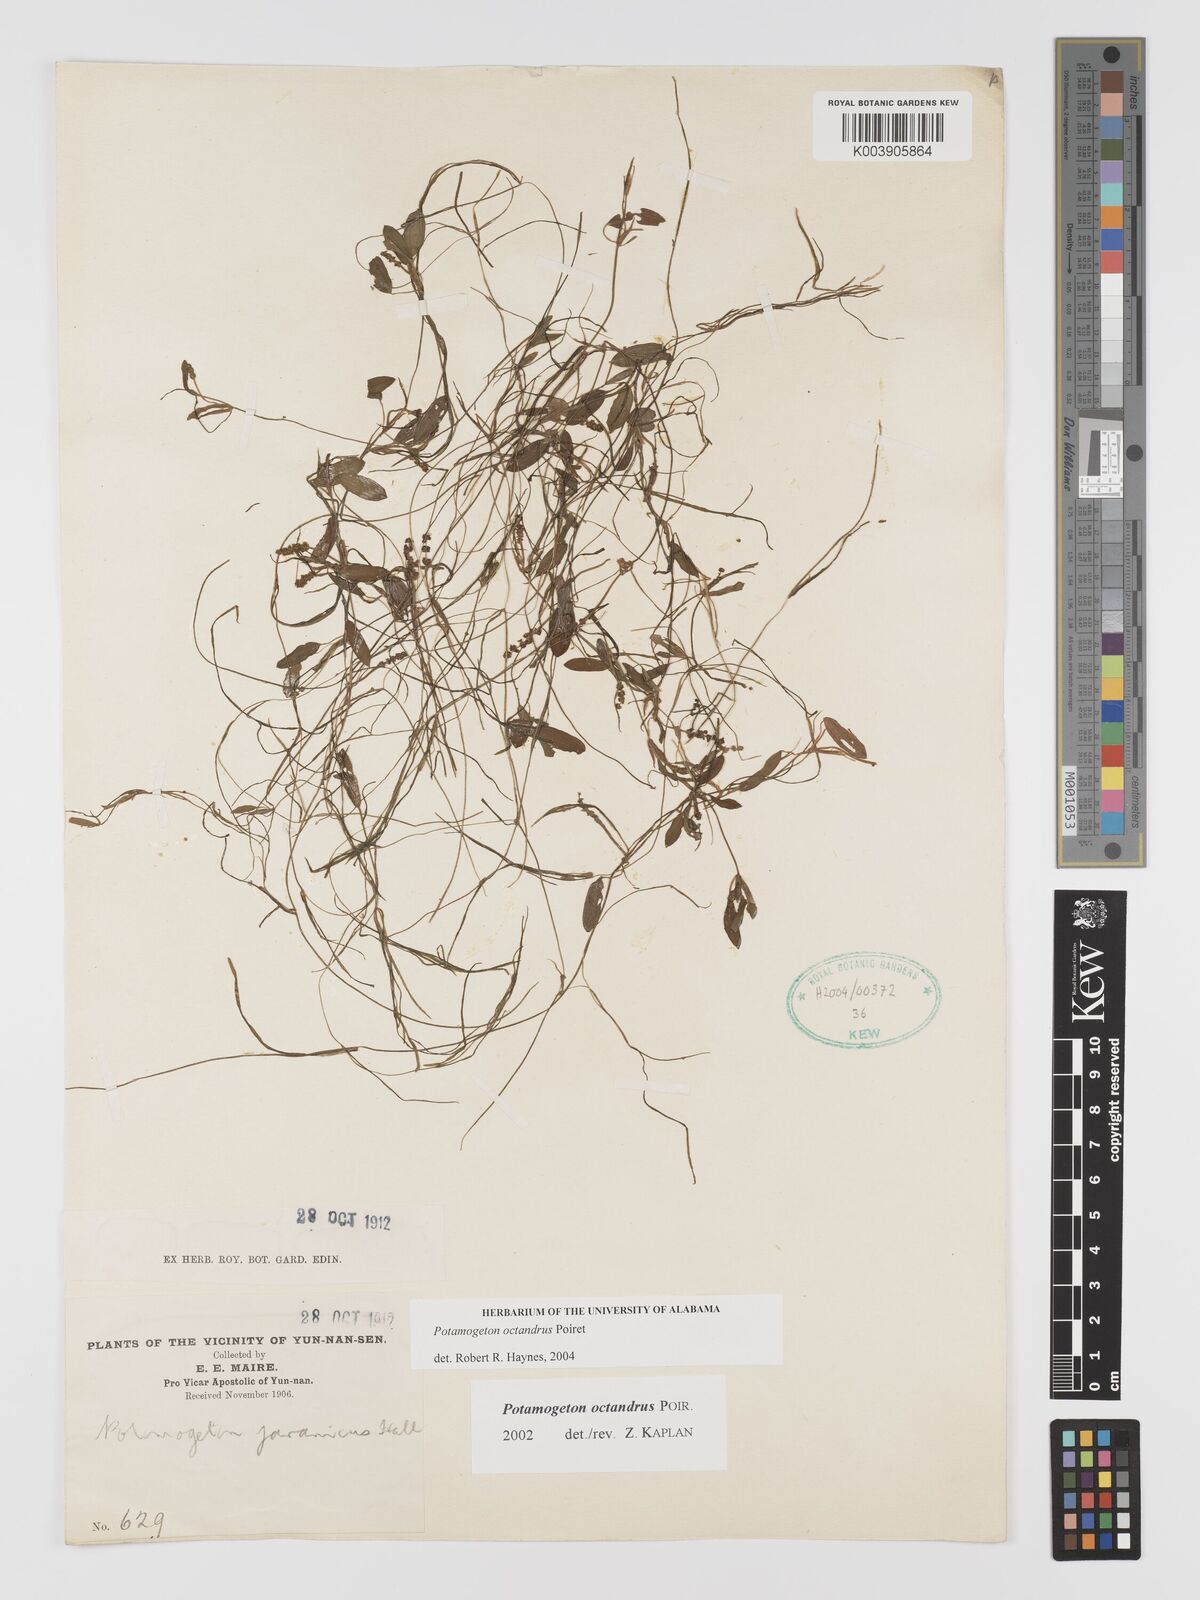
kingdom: Plantae
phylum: Tracheophyta
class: Liliopsida
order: Alismatales
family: Potamogetonaceae
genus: Potamogeton
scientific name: Potamogeton octandrus
